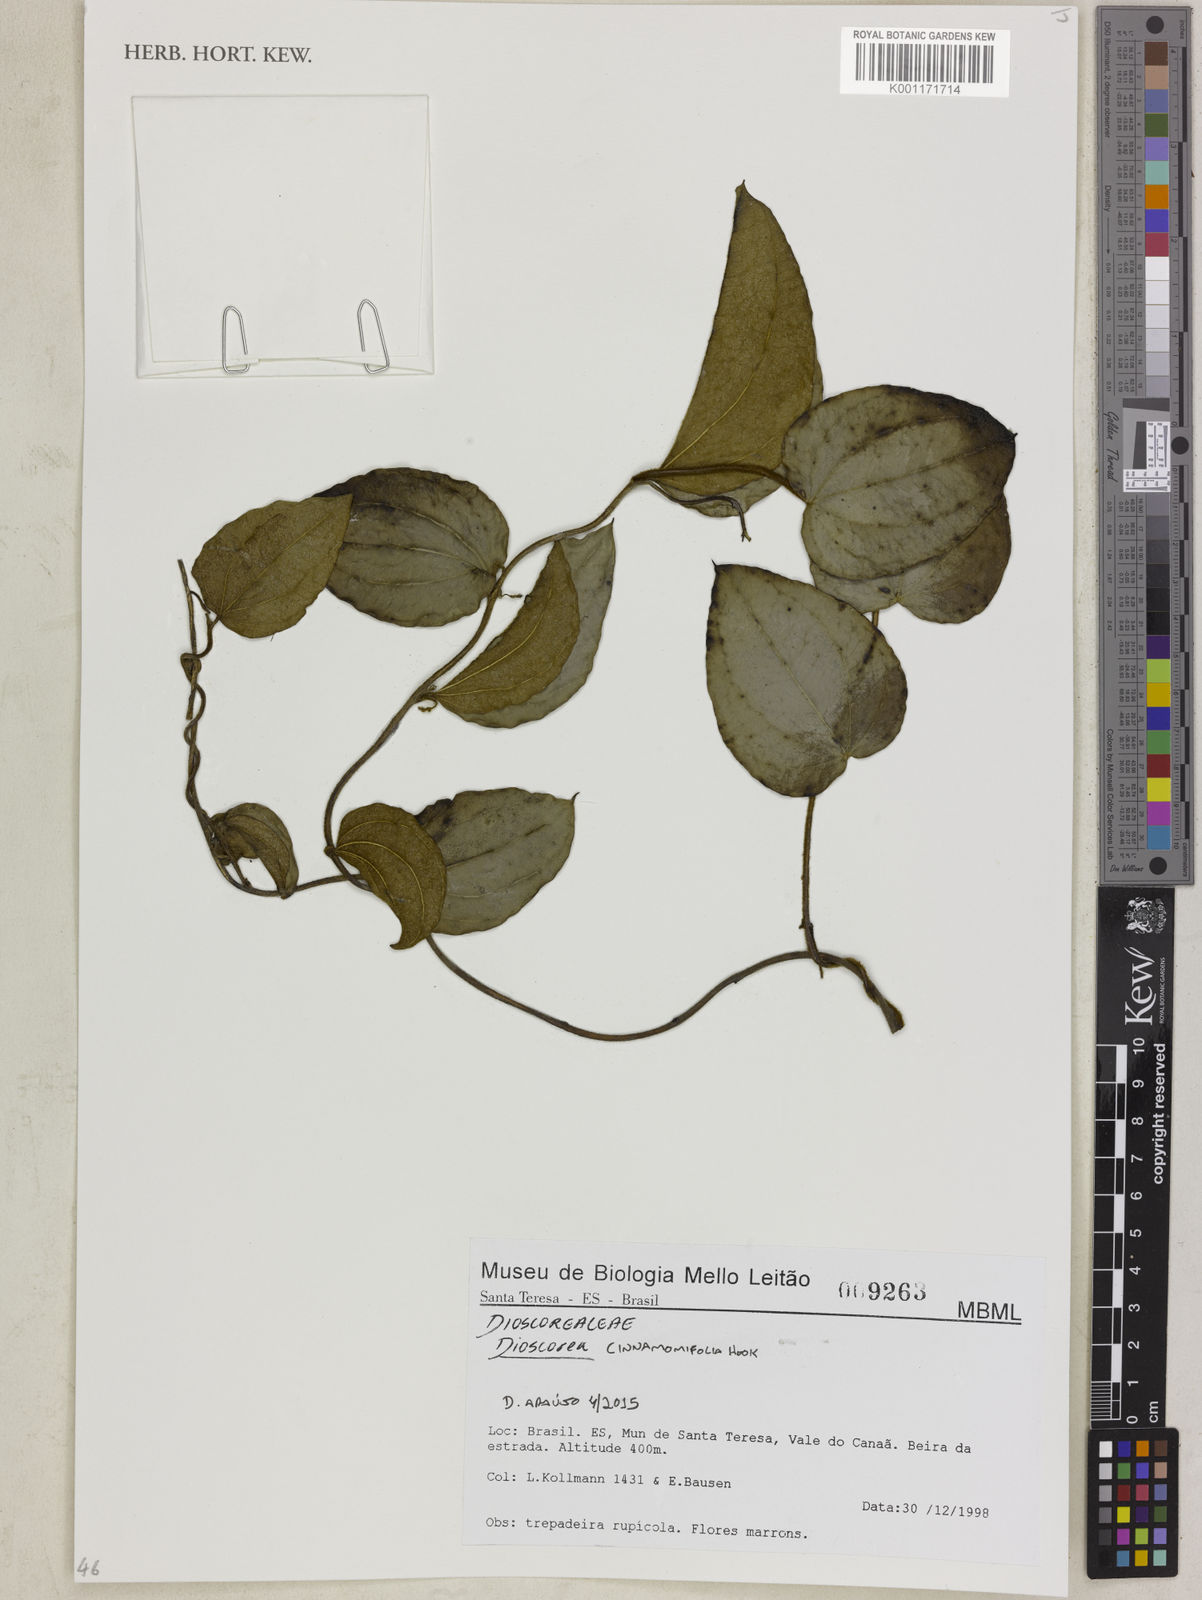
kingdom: Plantae
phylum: Tracheophyta
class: Liliopsida
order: Dioscoreales
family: Dioscoreaceae
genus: Dioscorea
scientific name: Dioscorea cinnamomifolia
